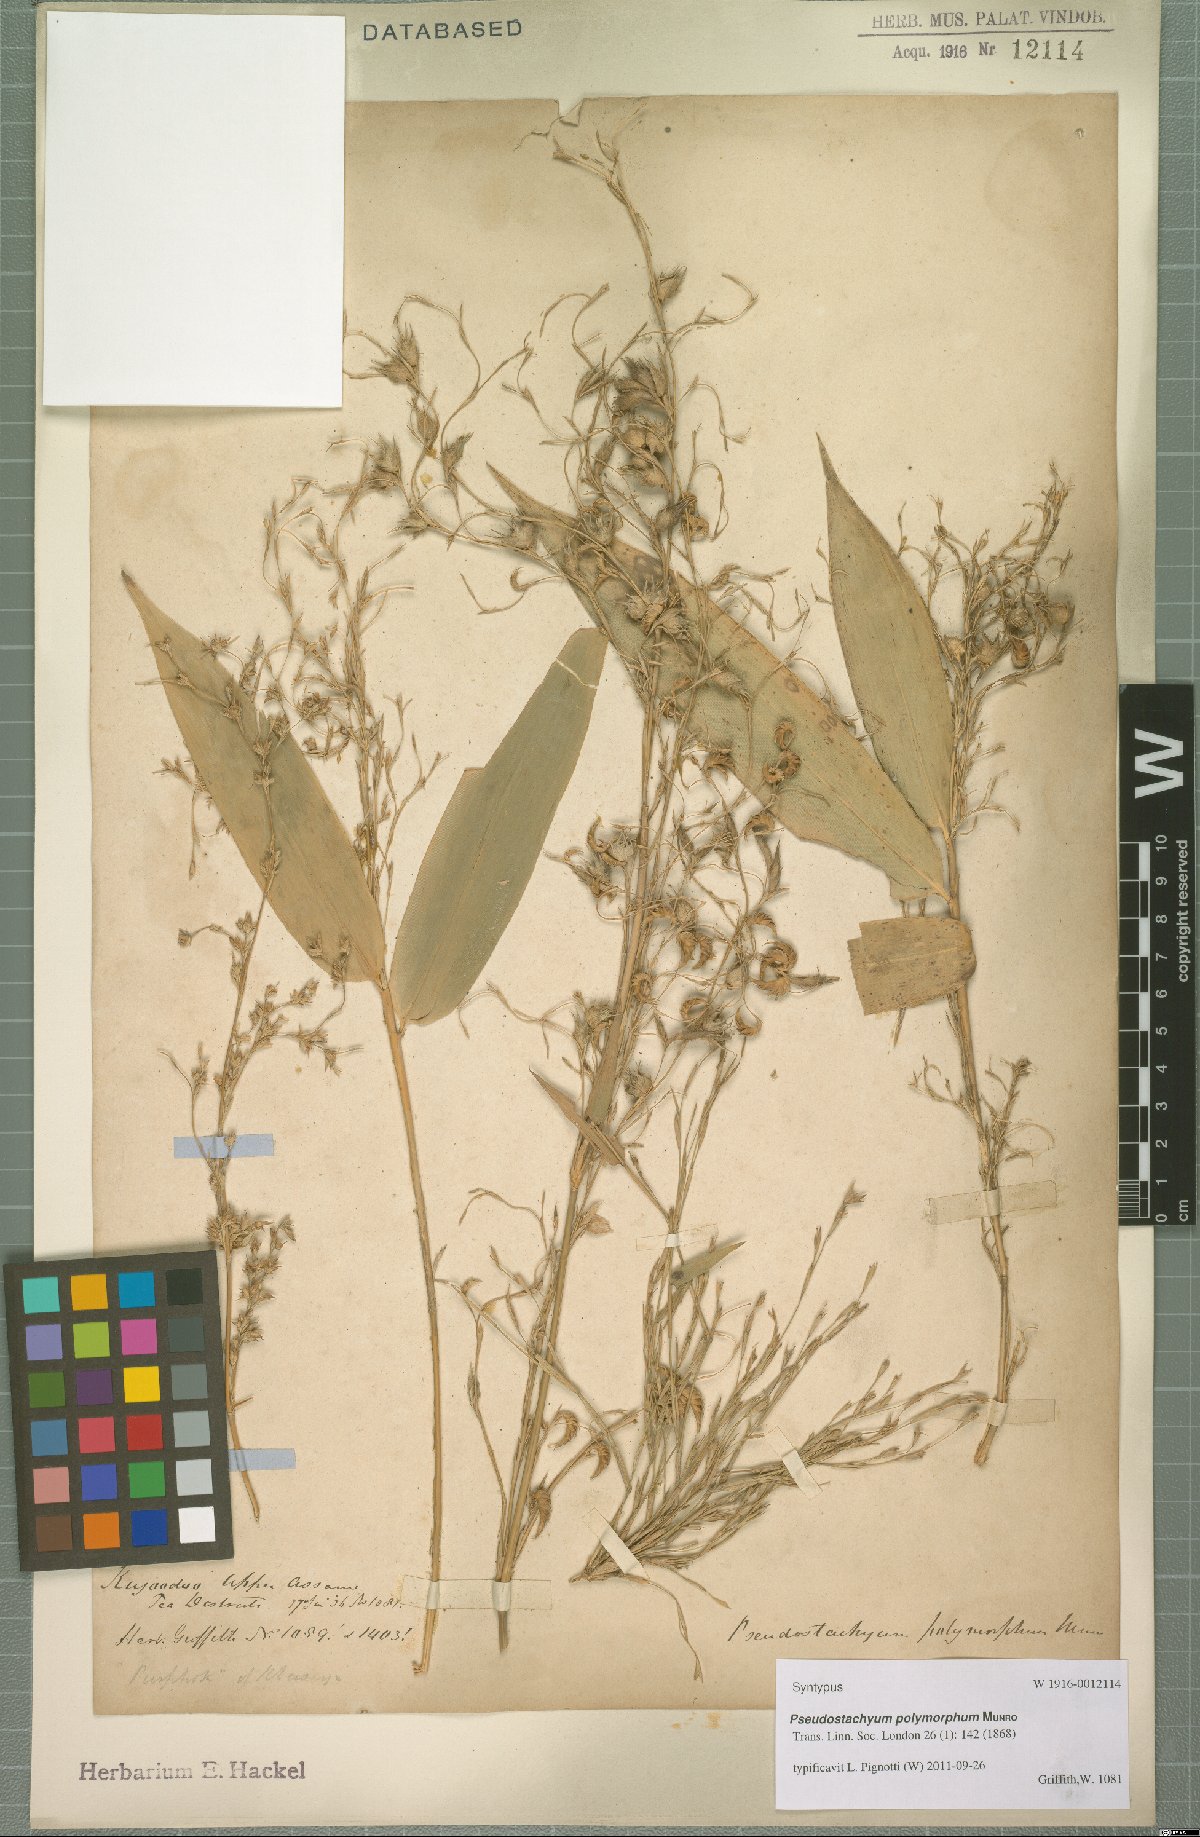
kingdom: Plantae
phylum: Tracheophyta
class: Liliopsida
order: Poales
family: Poaceae
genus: Pseudostachyum
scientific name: Pseudostachyum polymorphum
